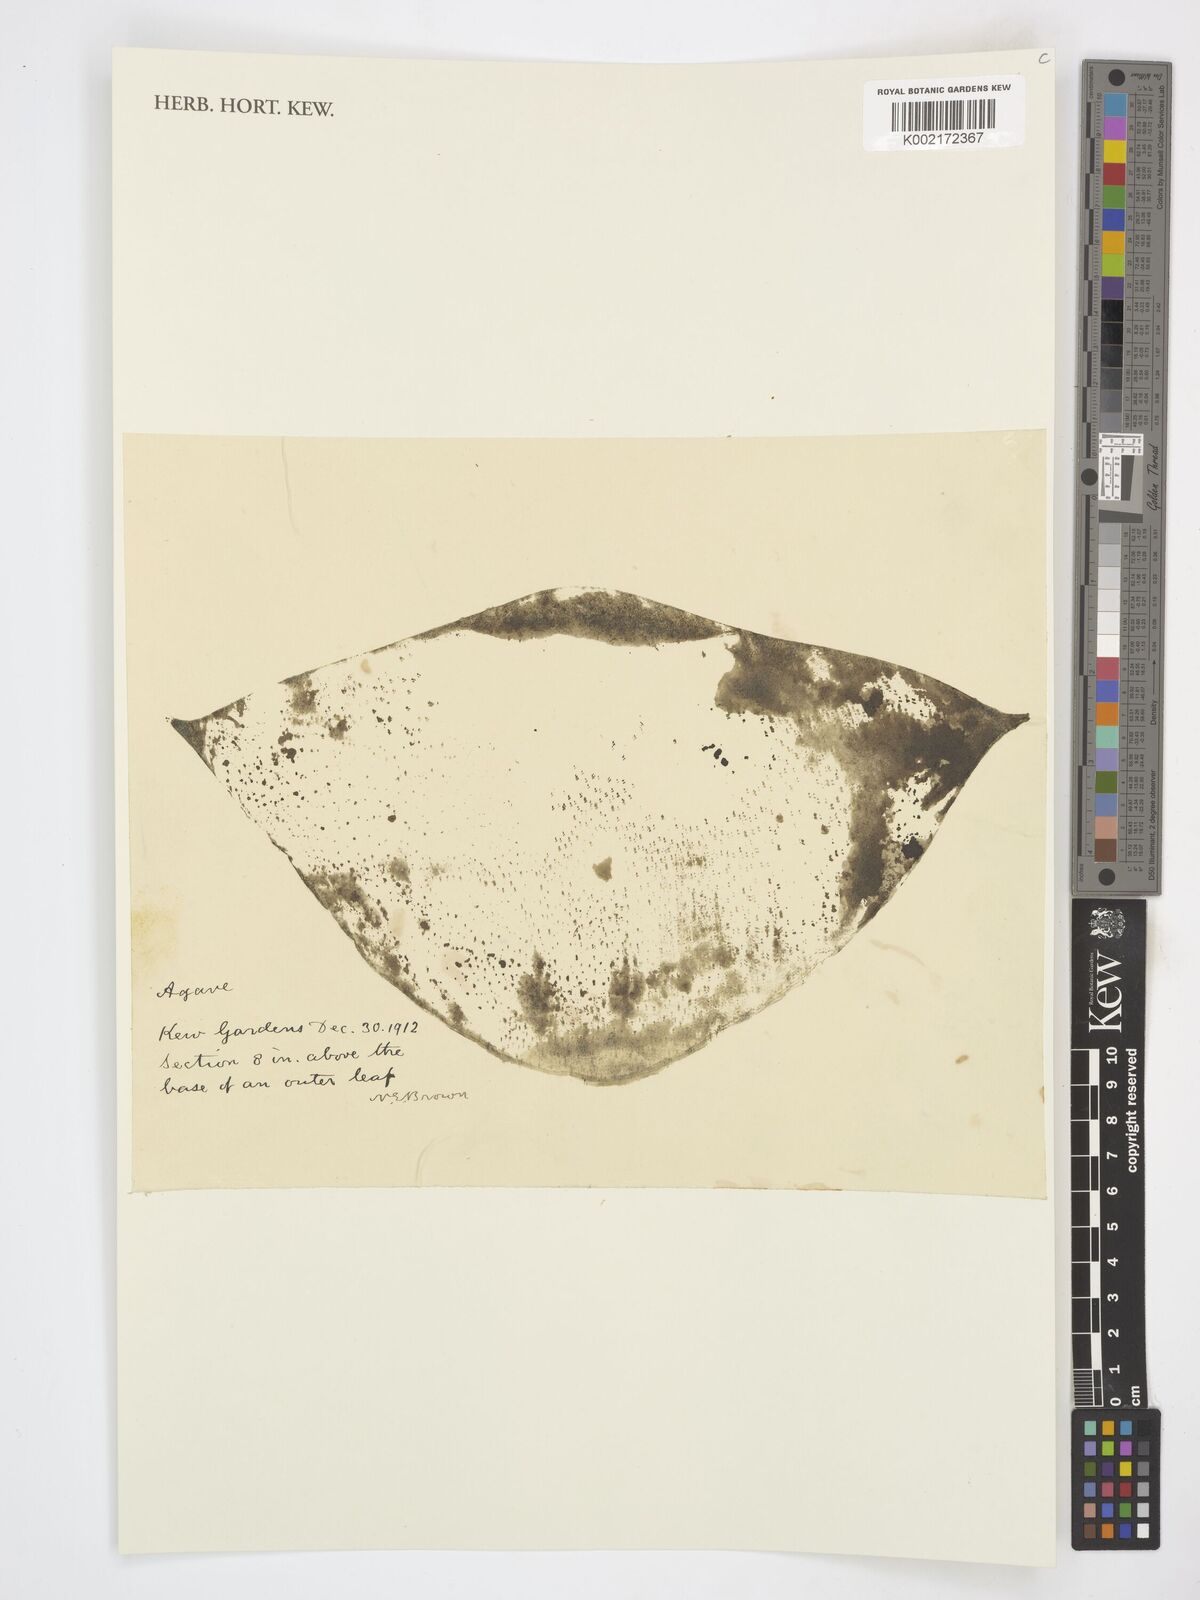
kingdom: Plantae
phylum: Tracheophyta
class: Liliopsida
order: Asparagales
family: Asparagaceae
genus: Agave
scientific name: Agave salmiana
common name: Pulque agave
